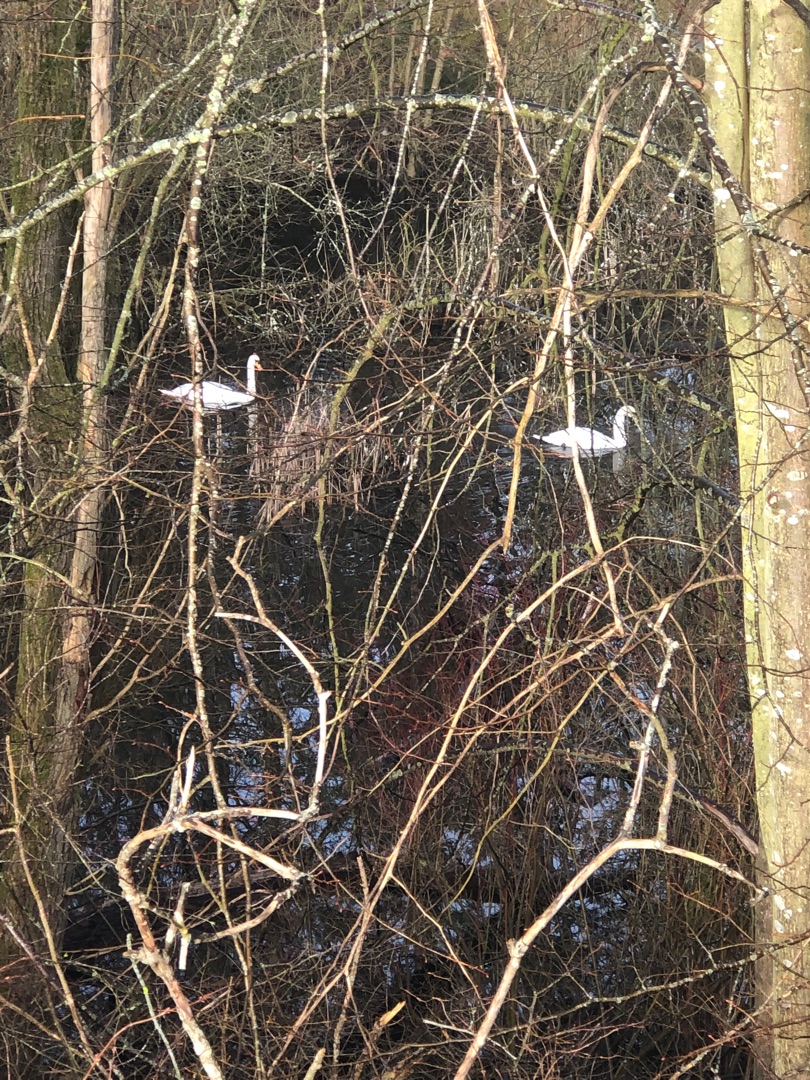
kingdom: Animalia
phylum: Chordata
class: Aves
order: Anseriformes
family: Anatidae
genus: Cygnus
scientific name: Cygnus olor
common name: Knopsvane
